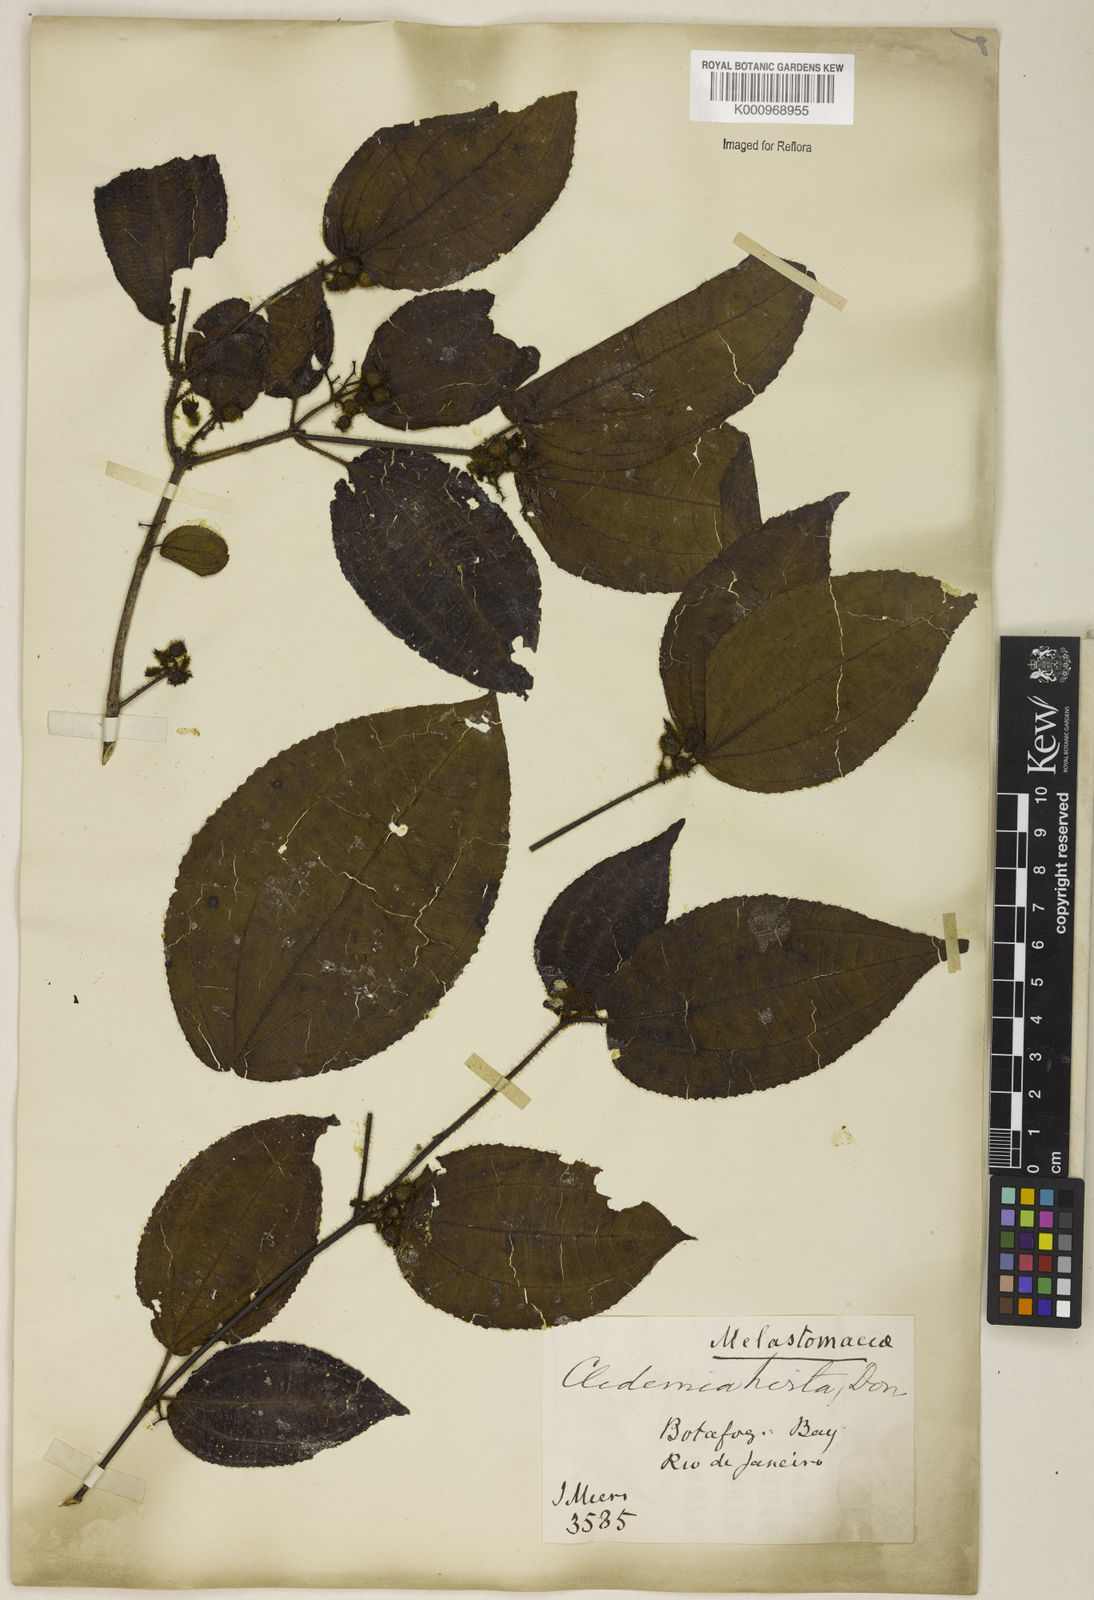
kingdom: Plantae
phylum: Tracheophyta
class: Magnoliopsida
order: Myrtales
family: Melastomataceae
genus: Miconia
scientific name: Miconia crenata
